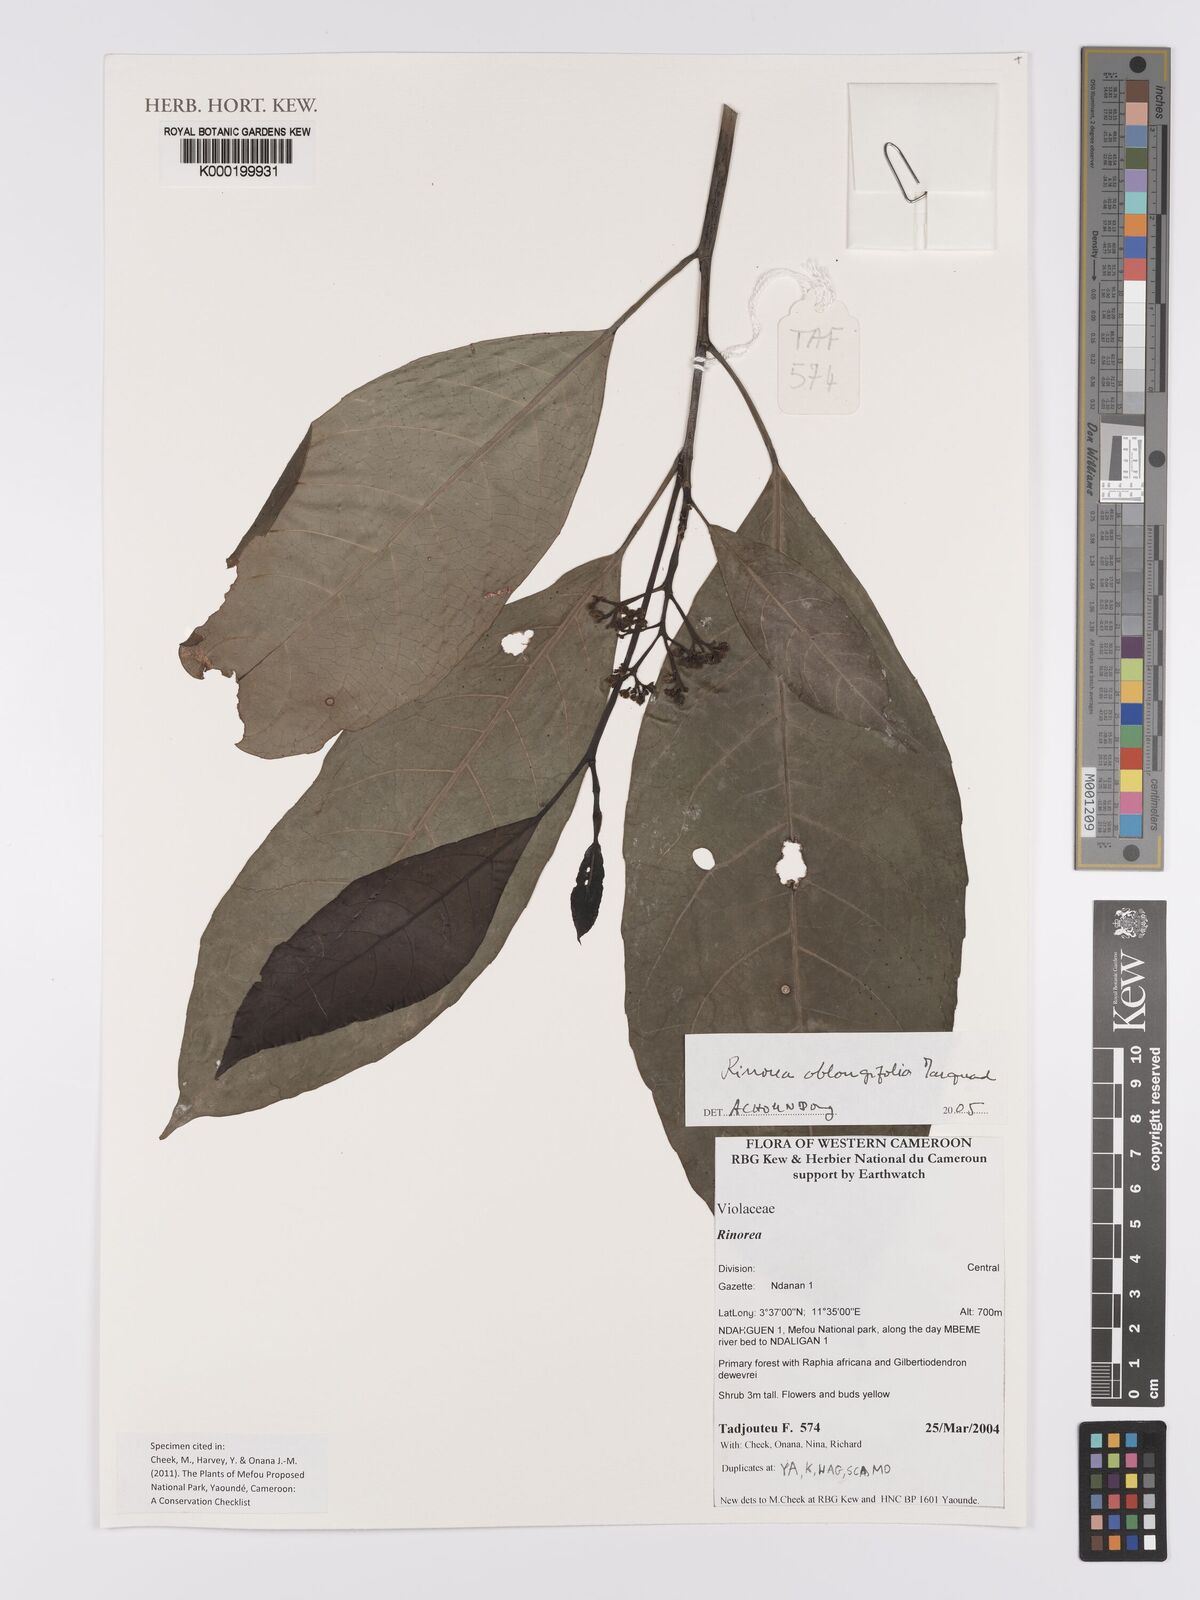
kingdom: Plantae
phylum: Tracheophyta
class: Magnoliopsida
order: Apiales
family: Pittosporaceae
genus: Marianthus
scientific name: Marianthus coeruleopunctatus
